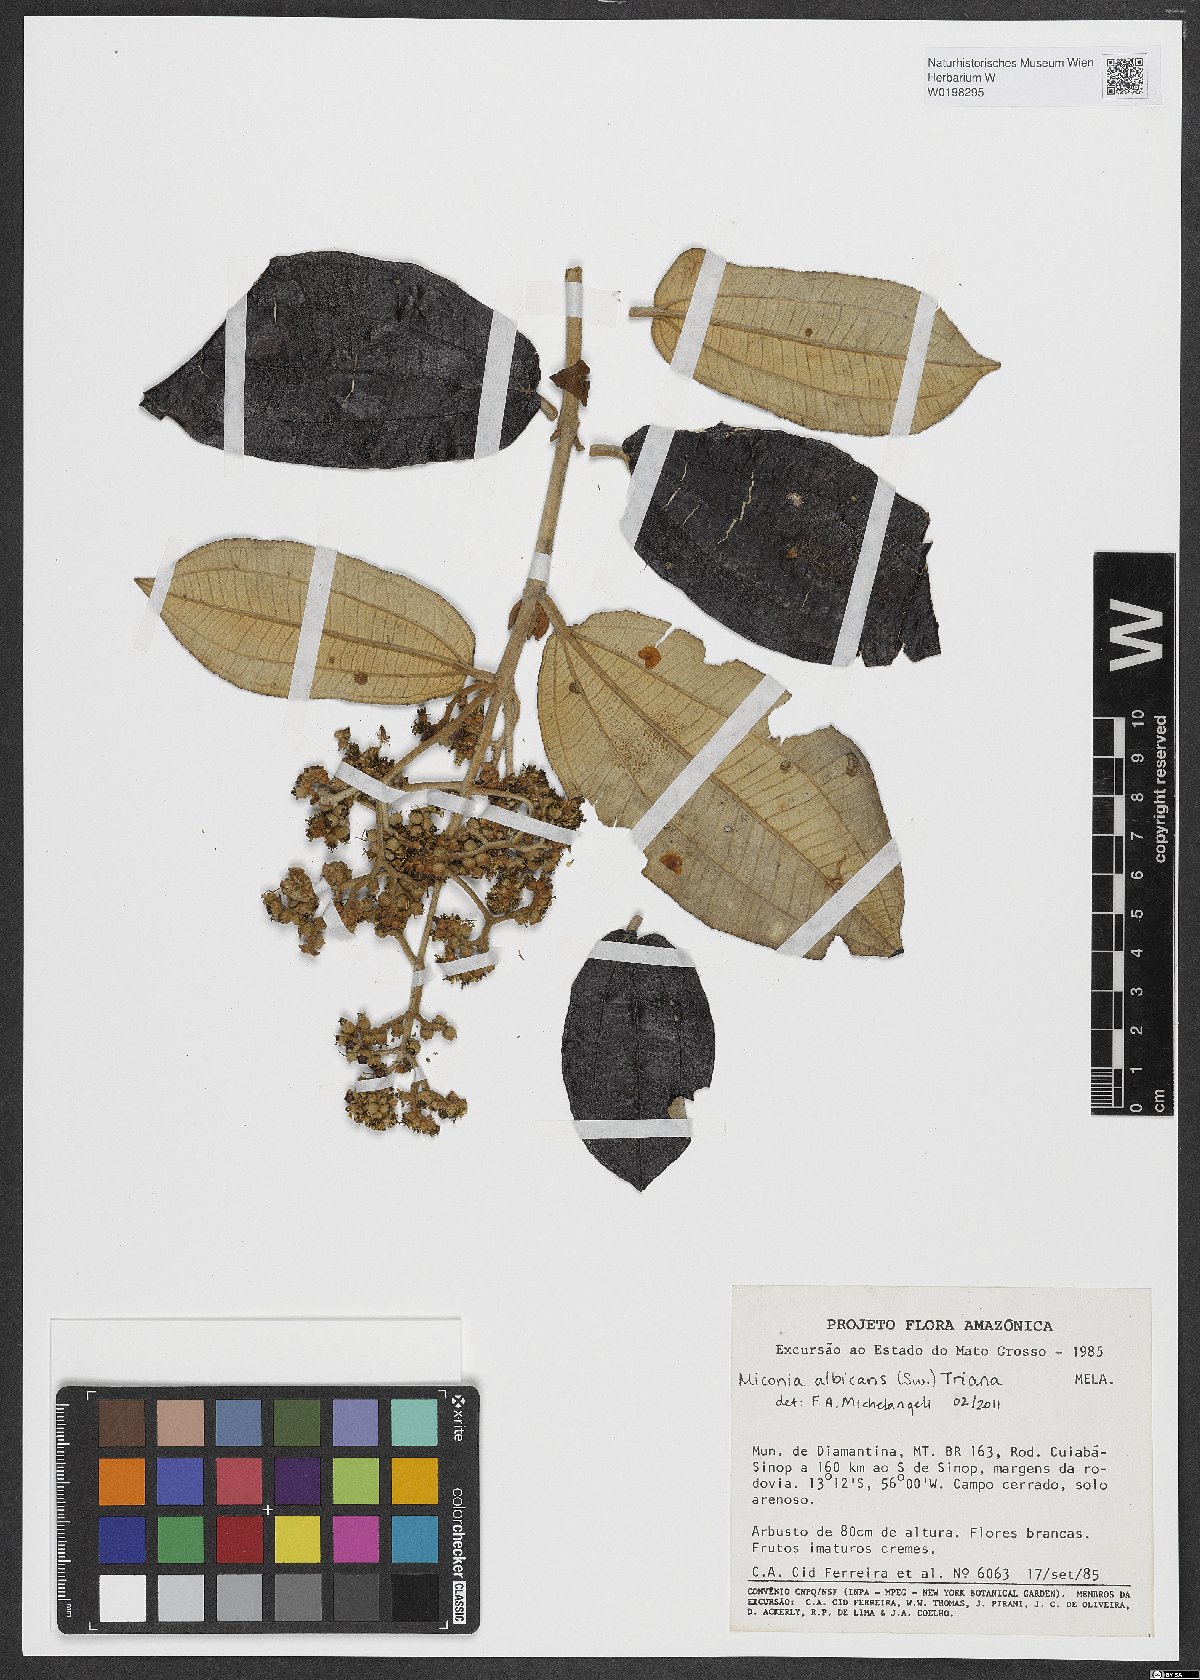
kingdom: Plantae
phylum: Tracheophyta
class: Magnoliopsida
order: Myrtales
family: Melastomataceae
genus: Miconia
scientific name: Miconia albicans
